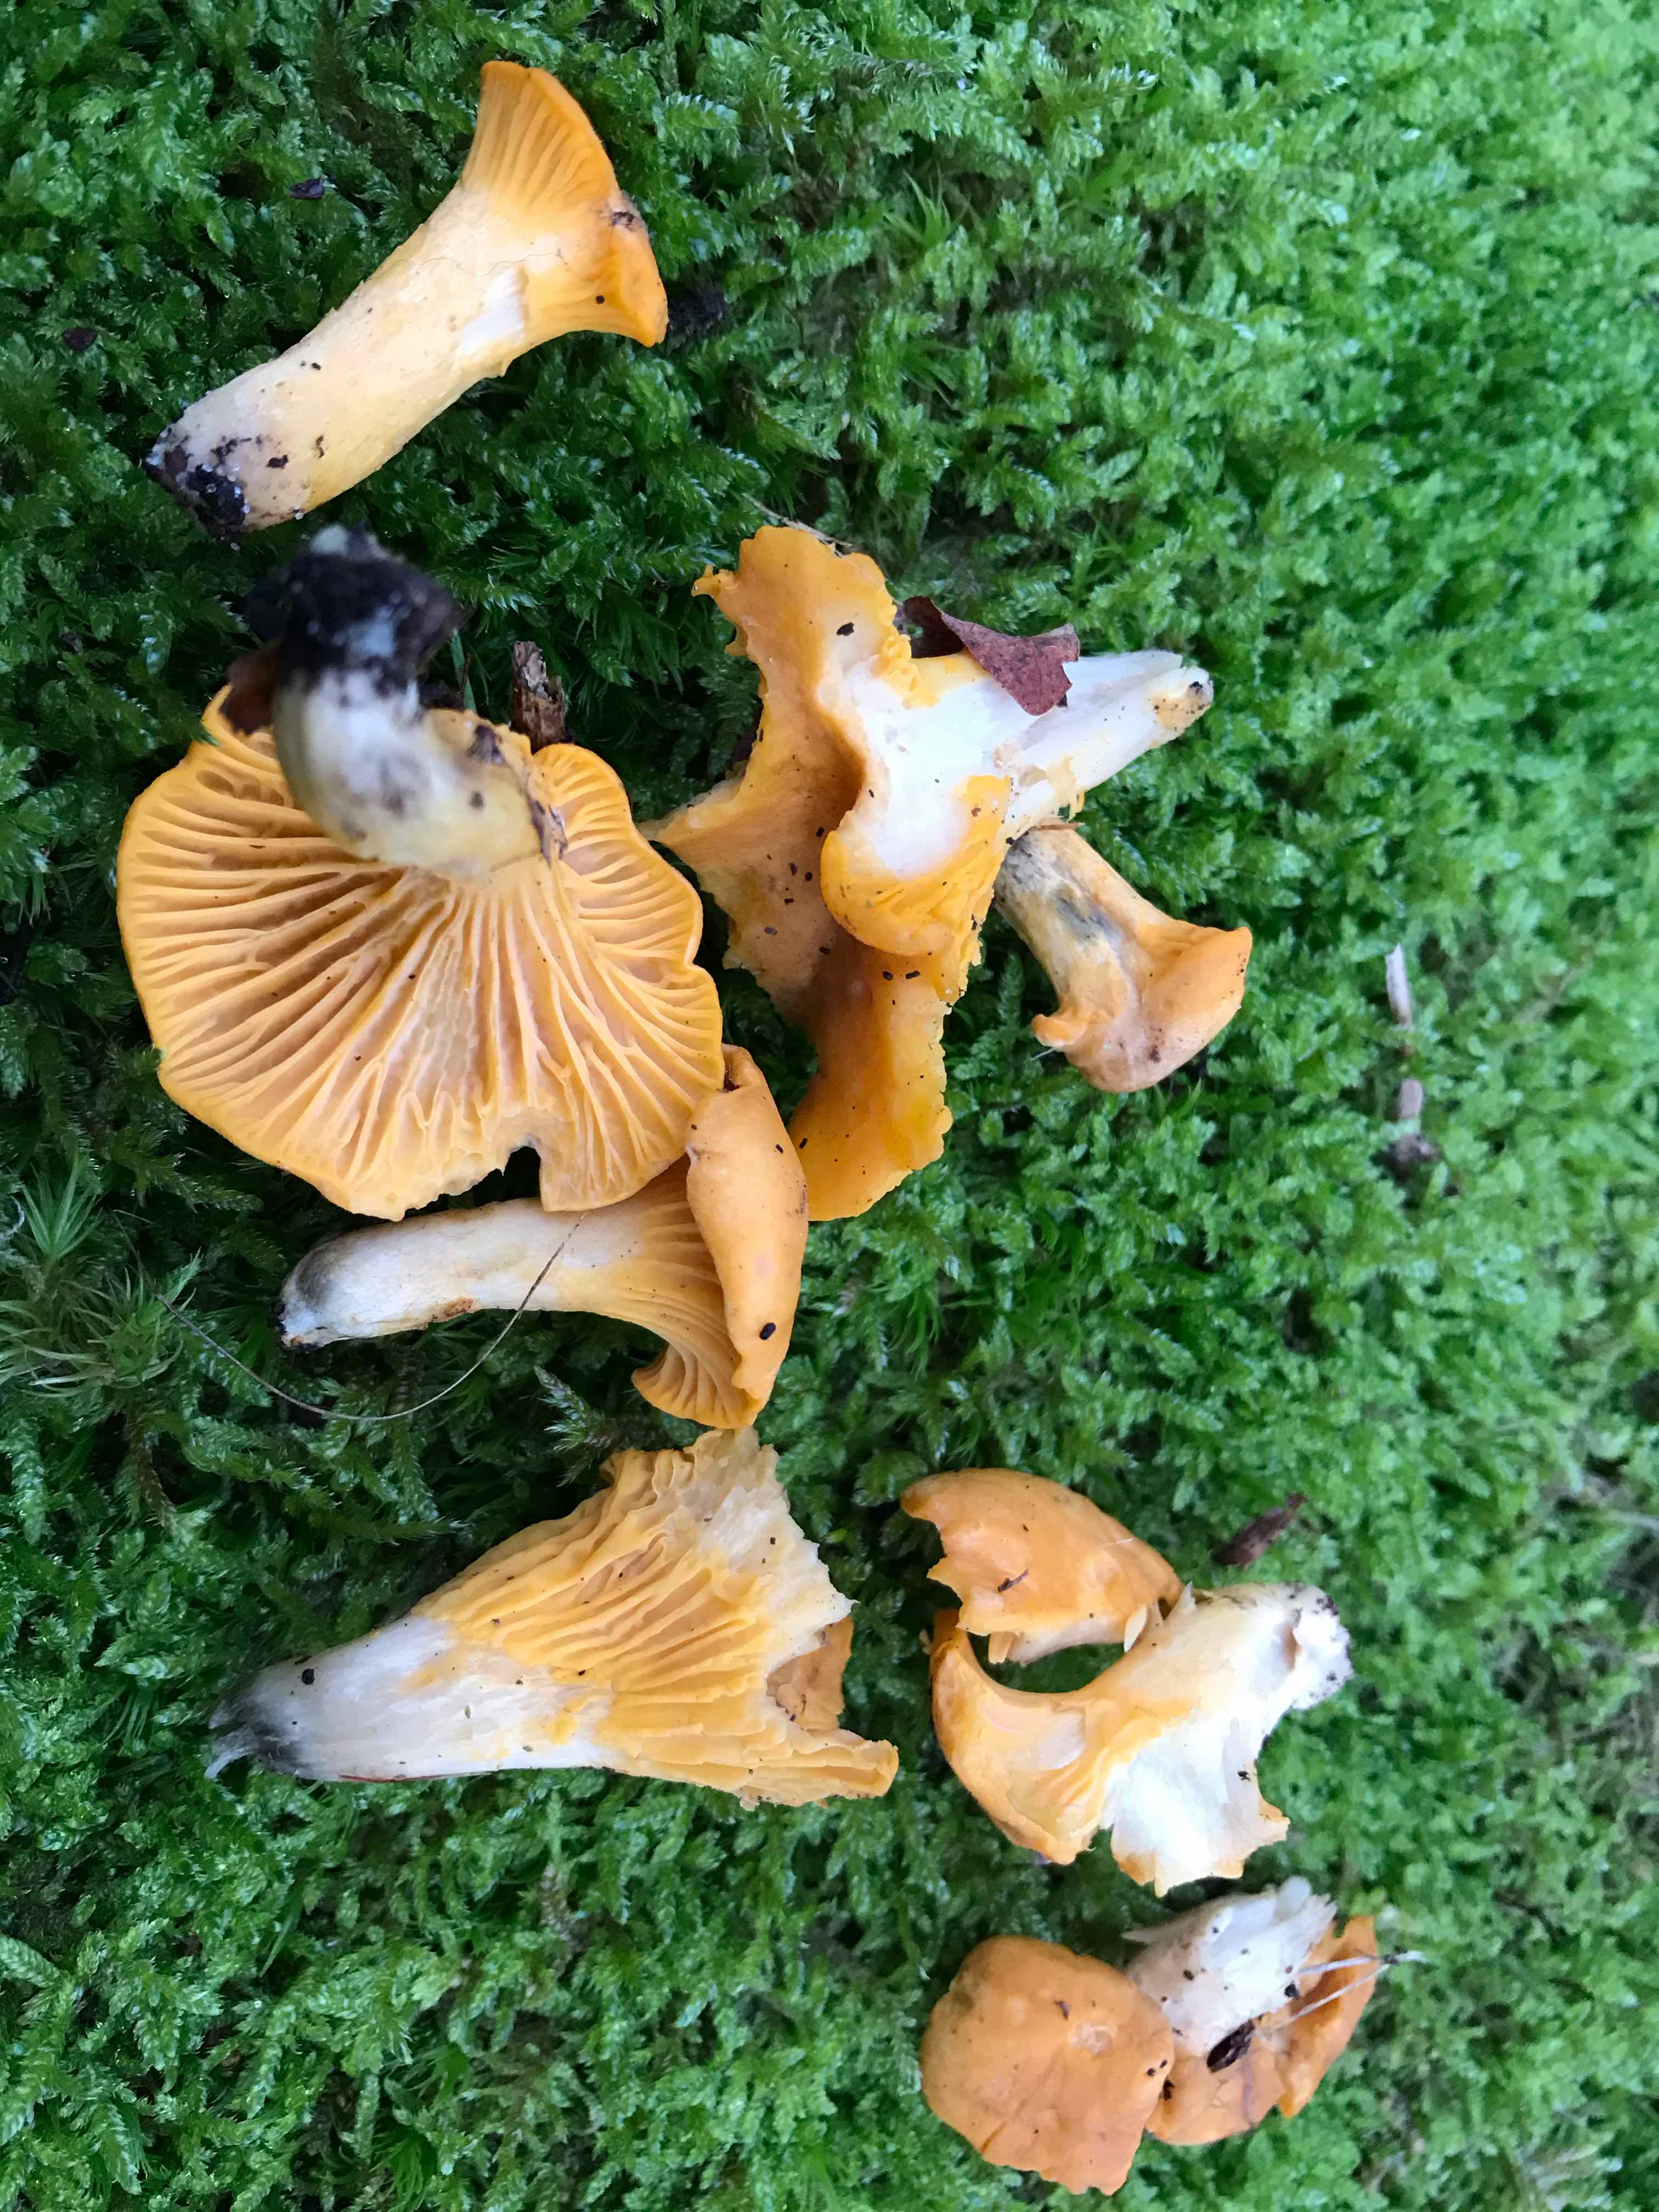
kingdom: Fungi
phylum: Basidiomycota
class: Agaricomycetes
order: Cantharellales
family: Hydnaceae
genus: Cantharellus
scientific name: Cantharellus cibarius
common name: almindelig kantarel
